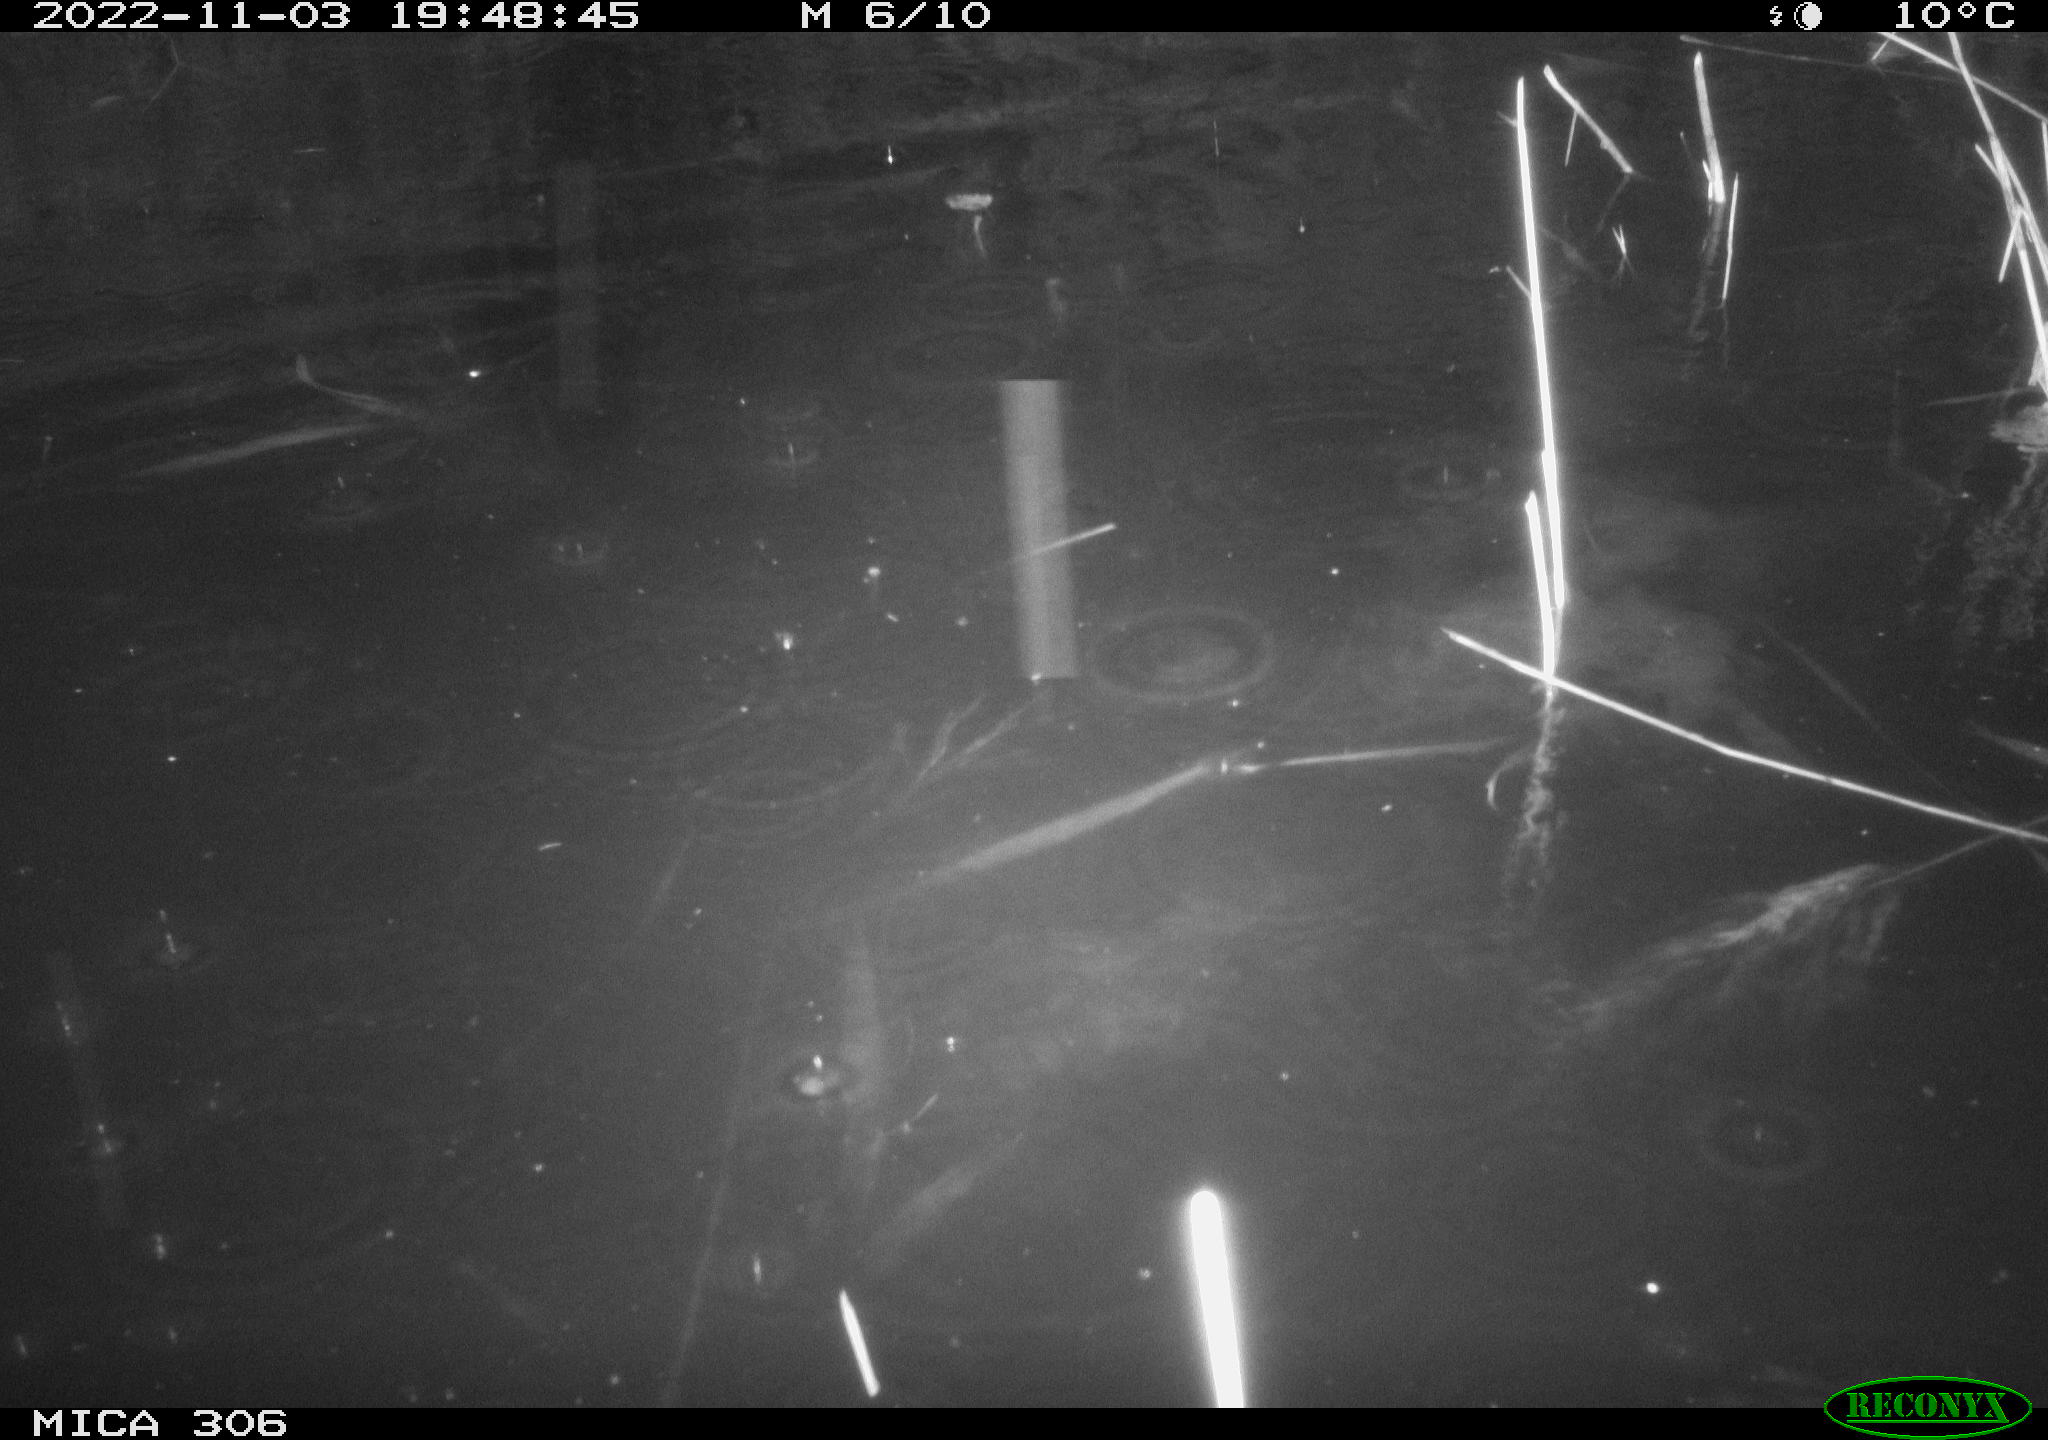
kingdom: Animalia
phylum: Chordata
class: Mammalia
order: Rodentia
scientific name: Rodentia
